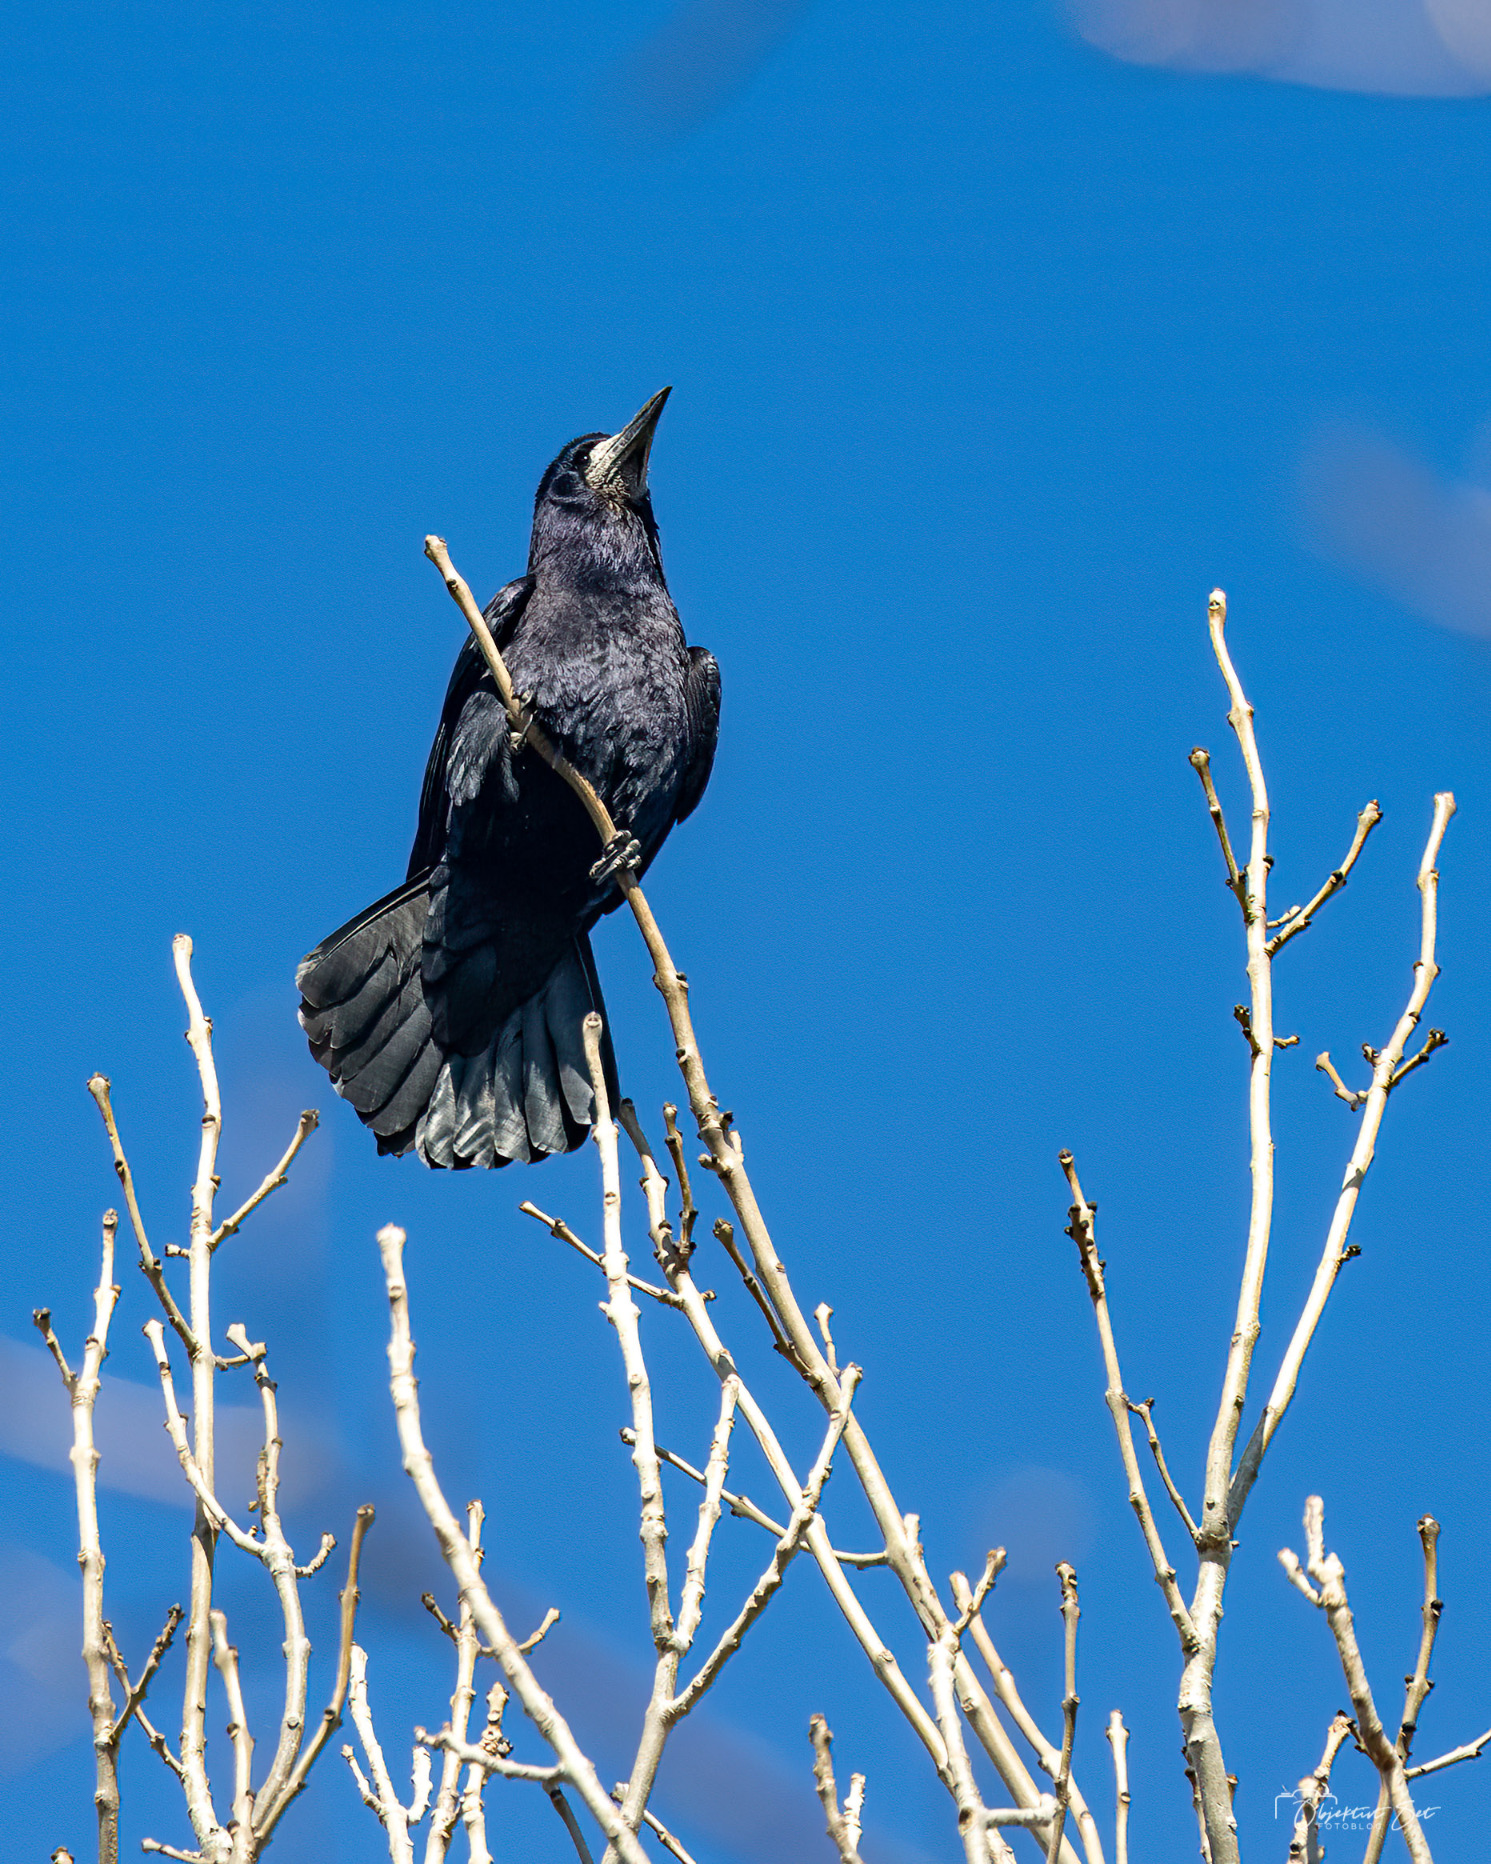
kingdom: Animalia
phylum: Chordata
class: Aves
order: Passeriformes
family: Corvidae
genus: Corvus
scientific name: Corvus frugilegus
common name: Råge
